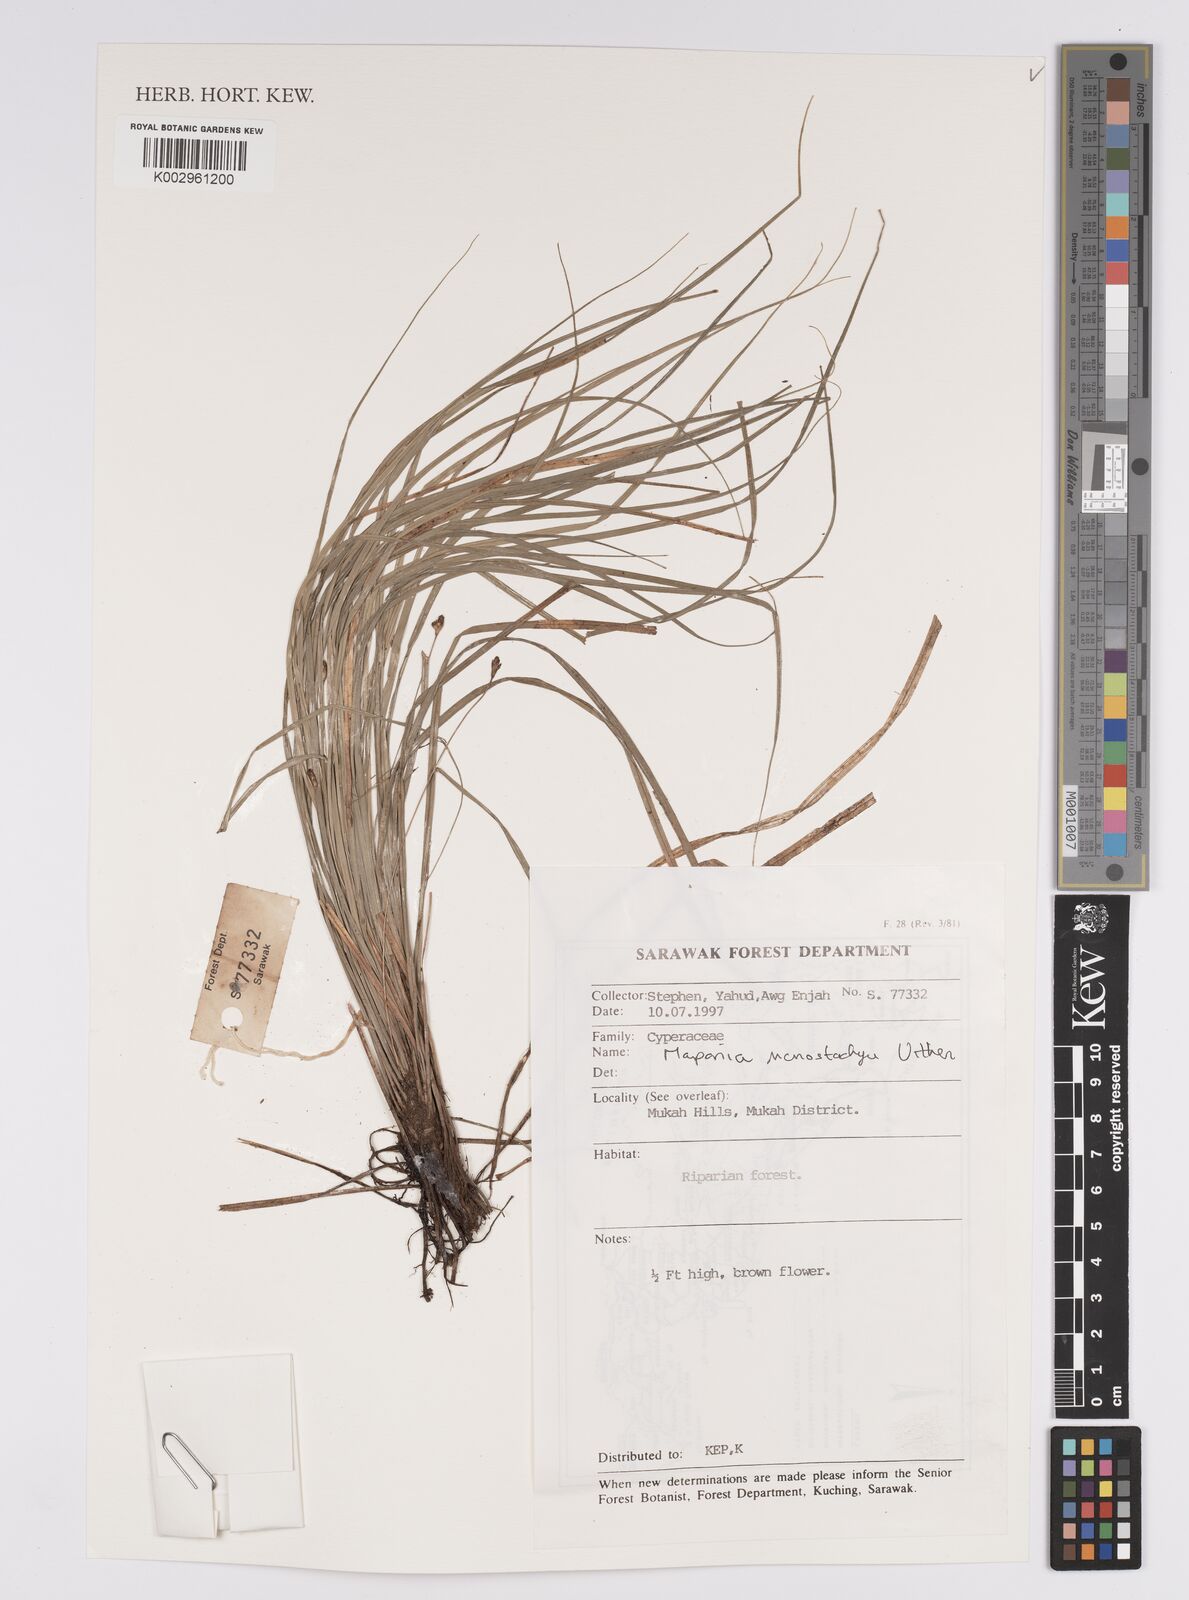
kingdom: Plantae
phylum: Tracheophyta
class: Liliopsida
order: Poales
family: Cyperaceae
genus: Mapania
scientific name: Mapania monostachya
